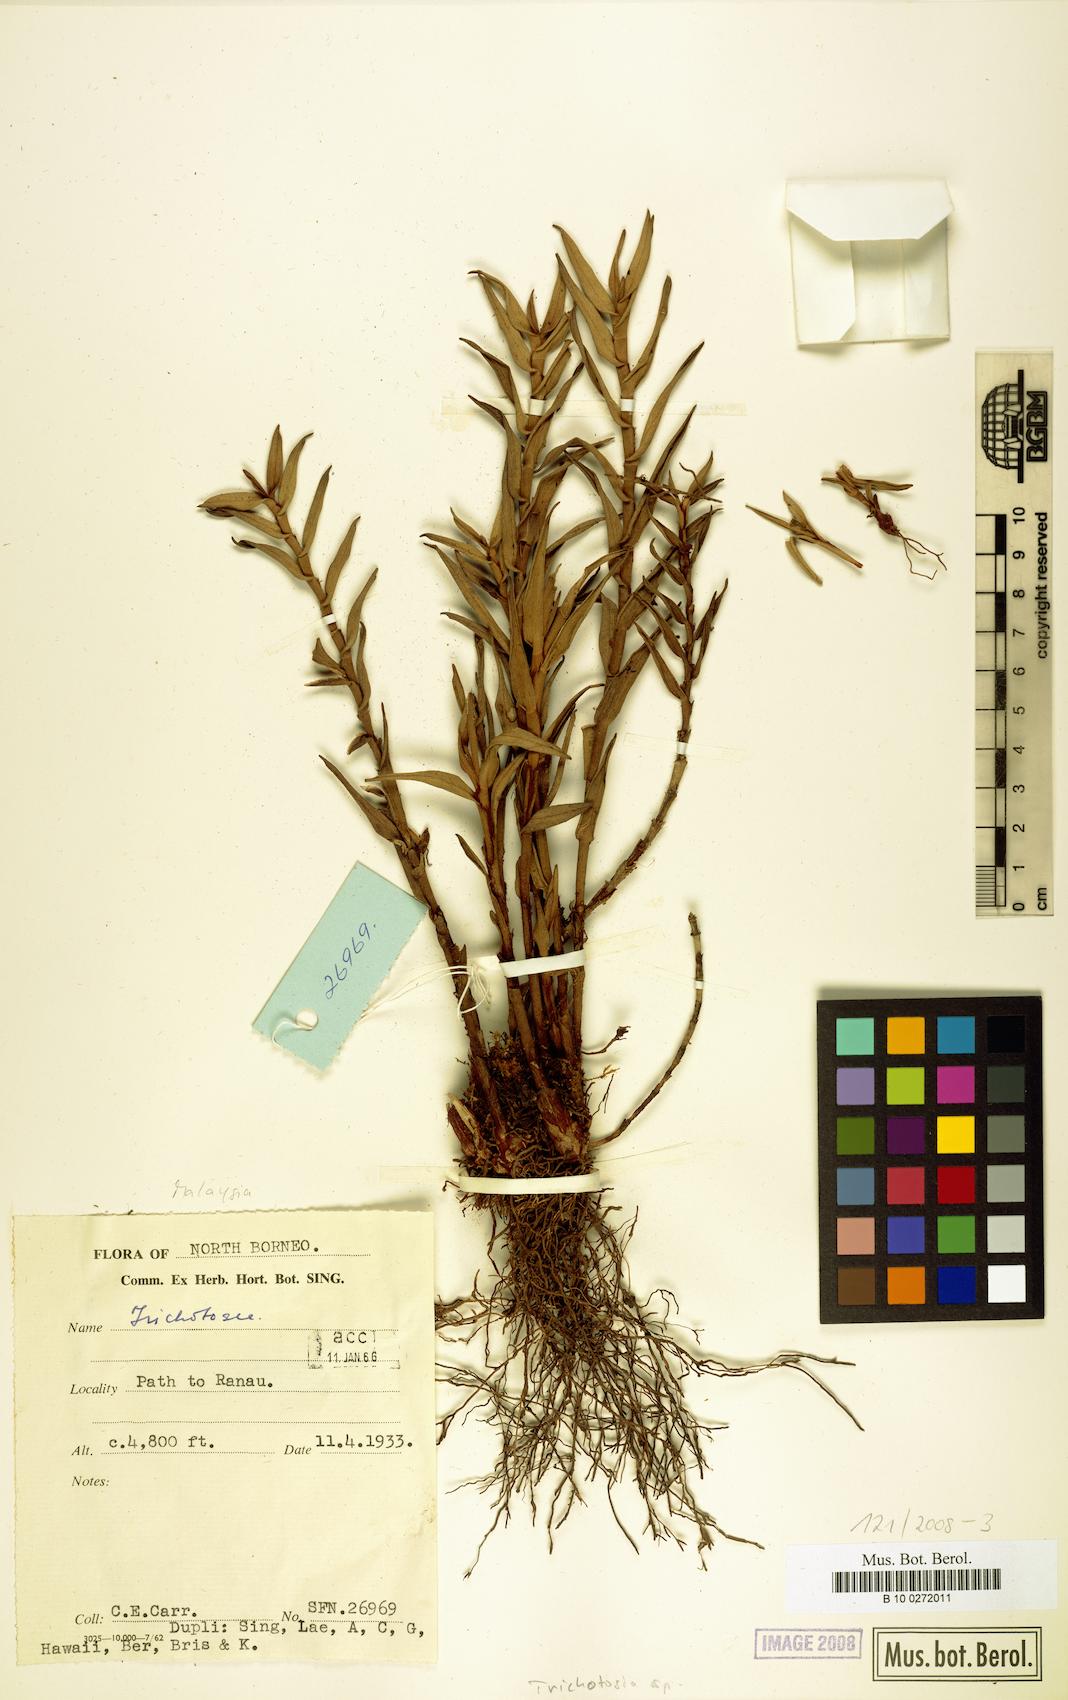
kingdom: Plantae
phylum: Tracheophyta
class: Liliopsida
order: Asparagales
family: Orchidaceae
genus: Trichotosia
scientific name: Trichotosia
